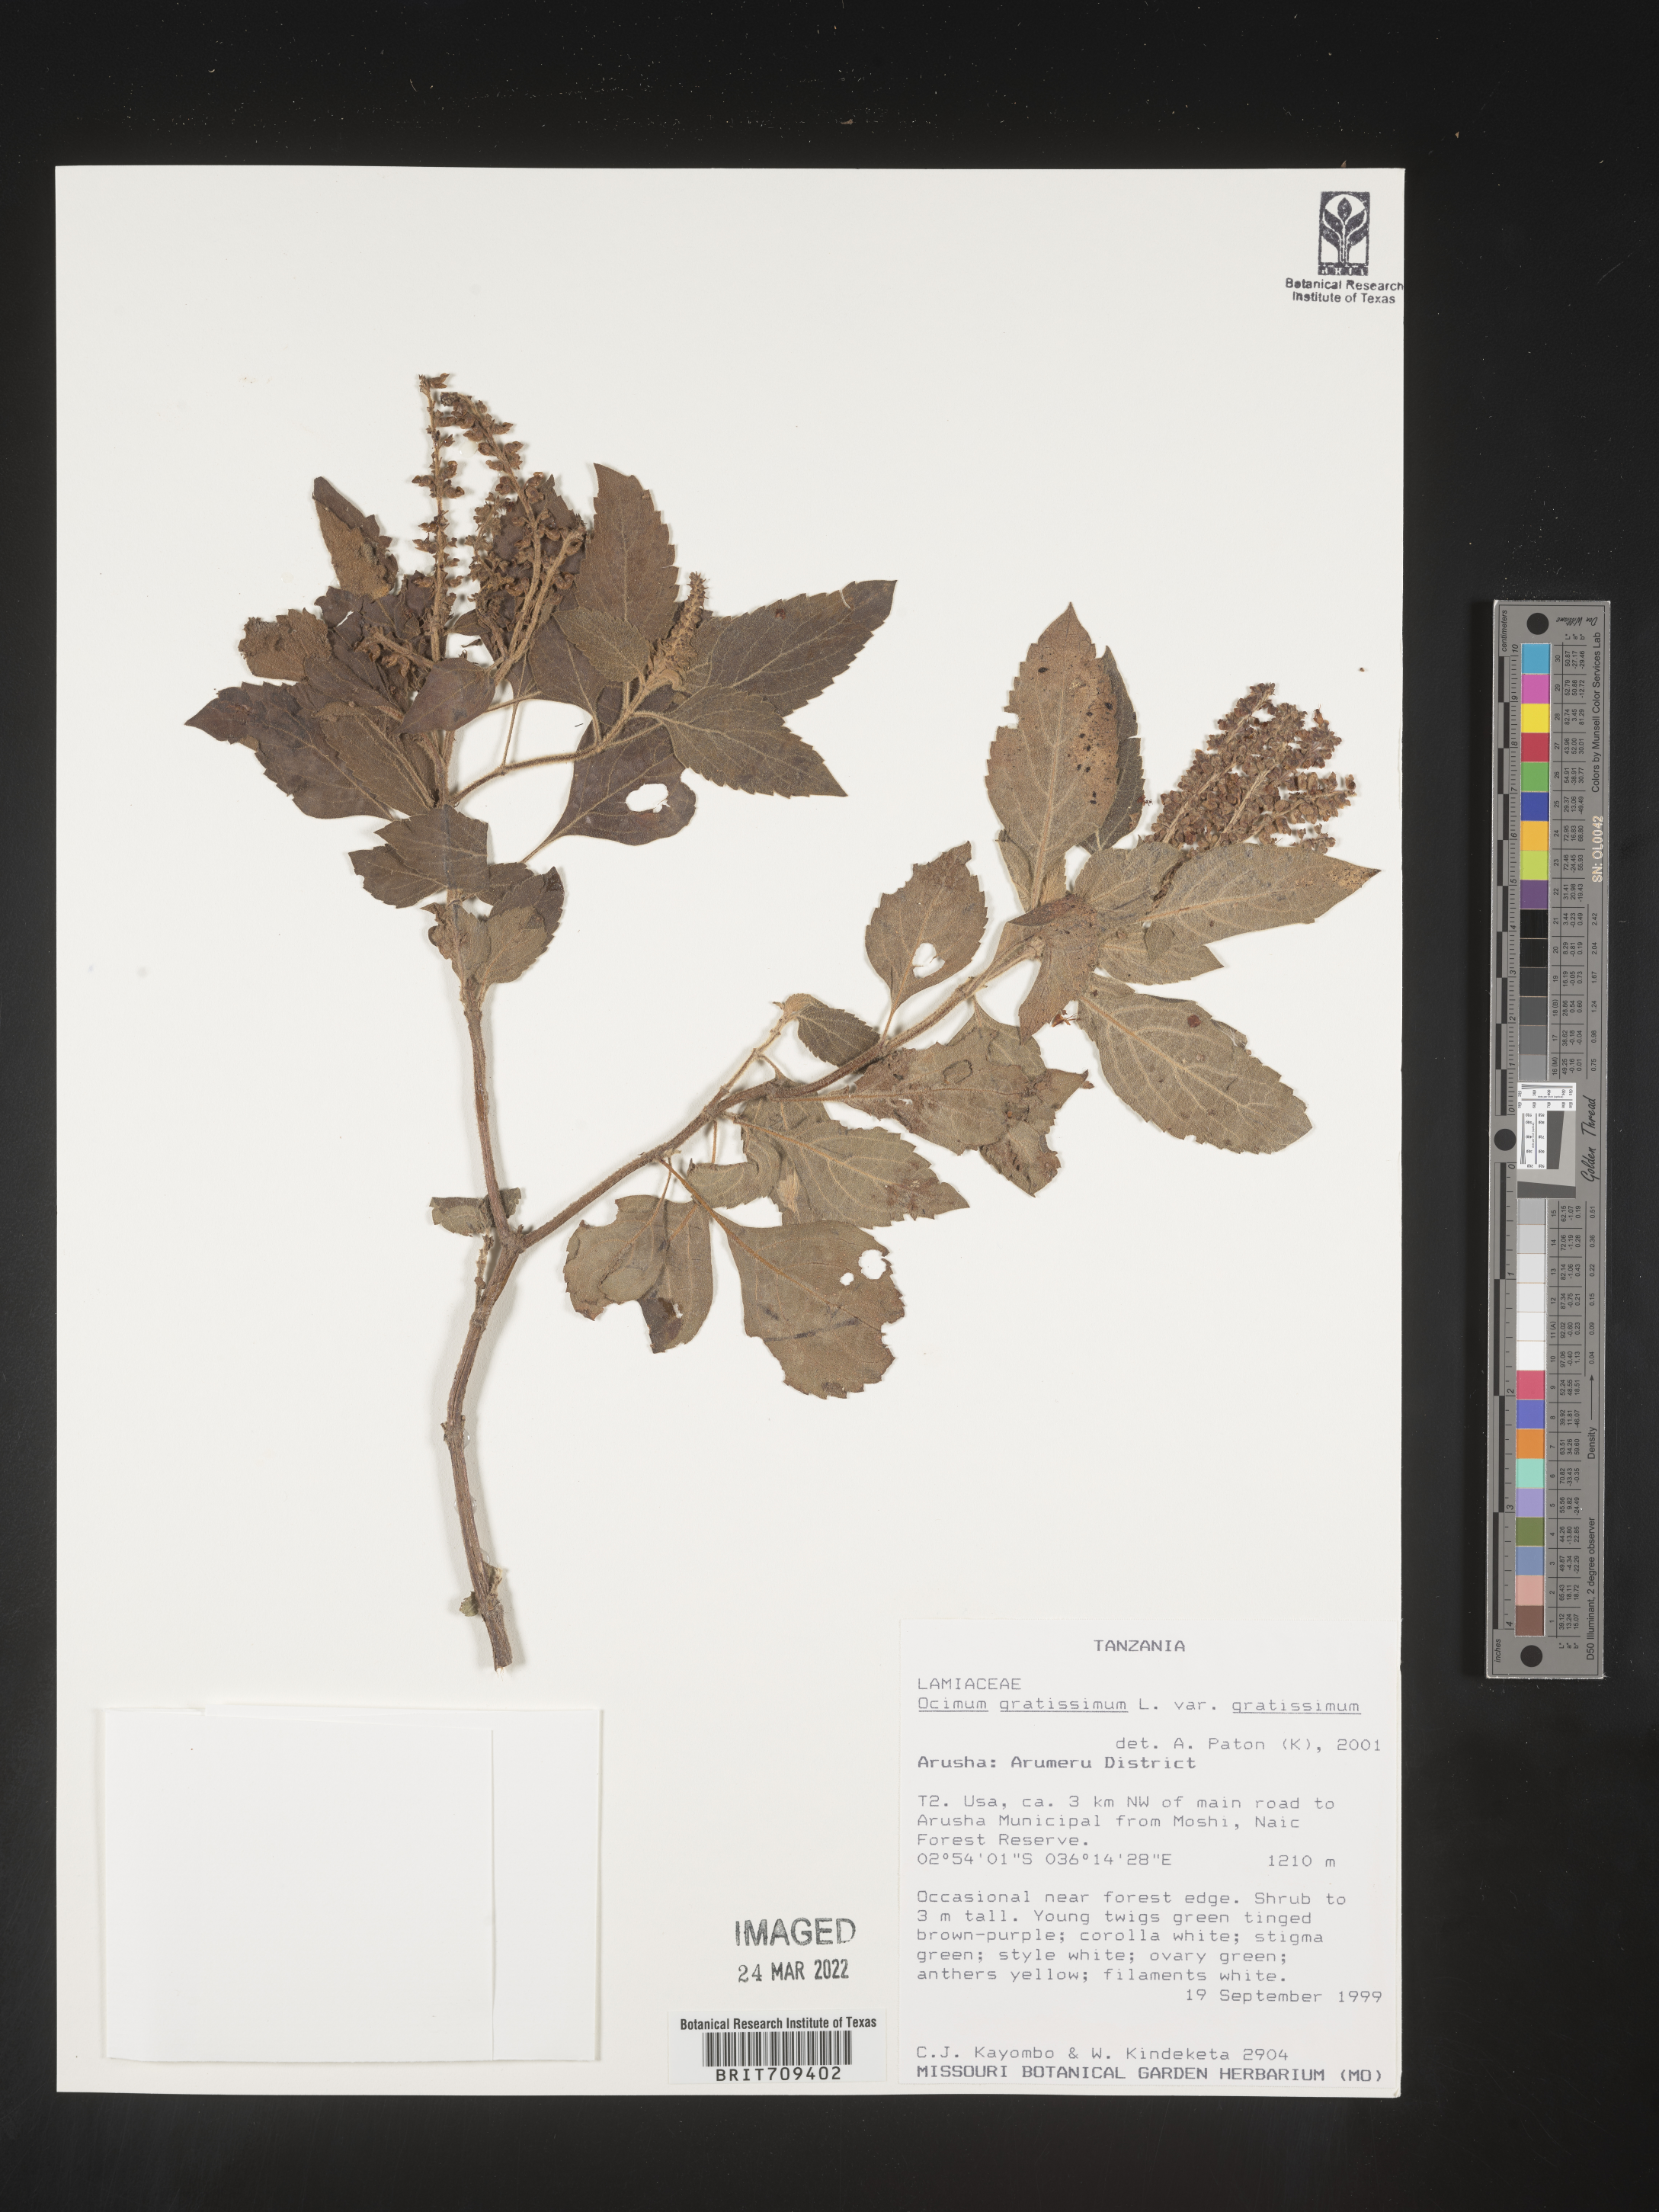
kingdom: Plantae
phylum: Tracheophyta
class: Magnoliopsida
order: Lamiales
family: Lamiaceae
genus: Ocimum
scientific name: Ocimum
